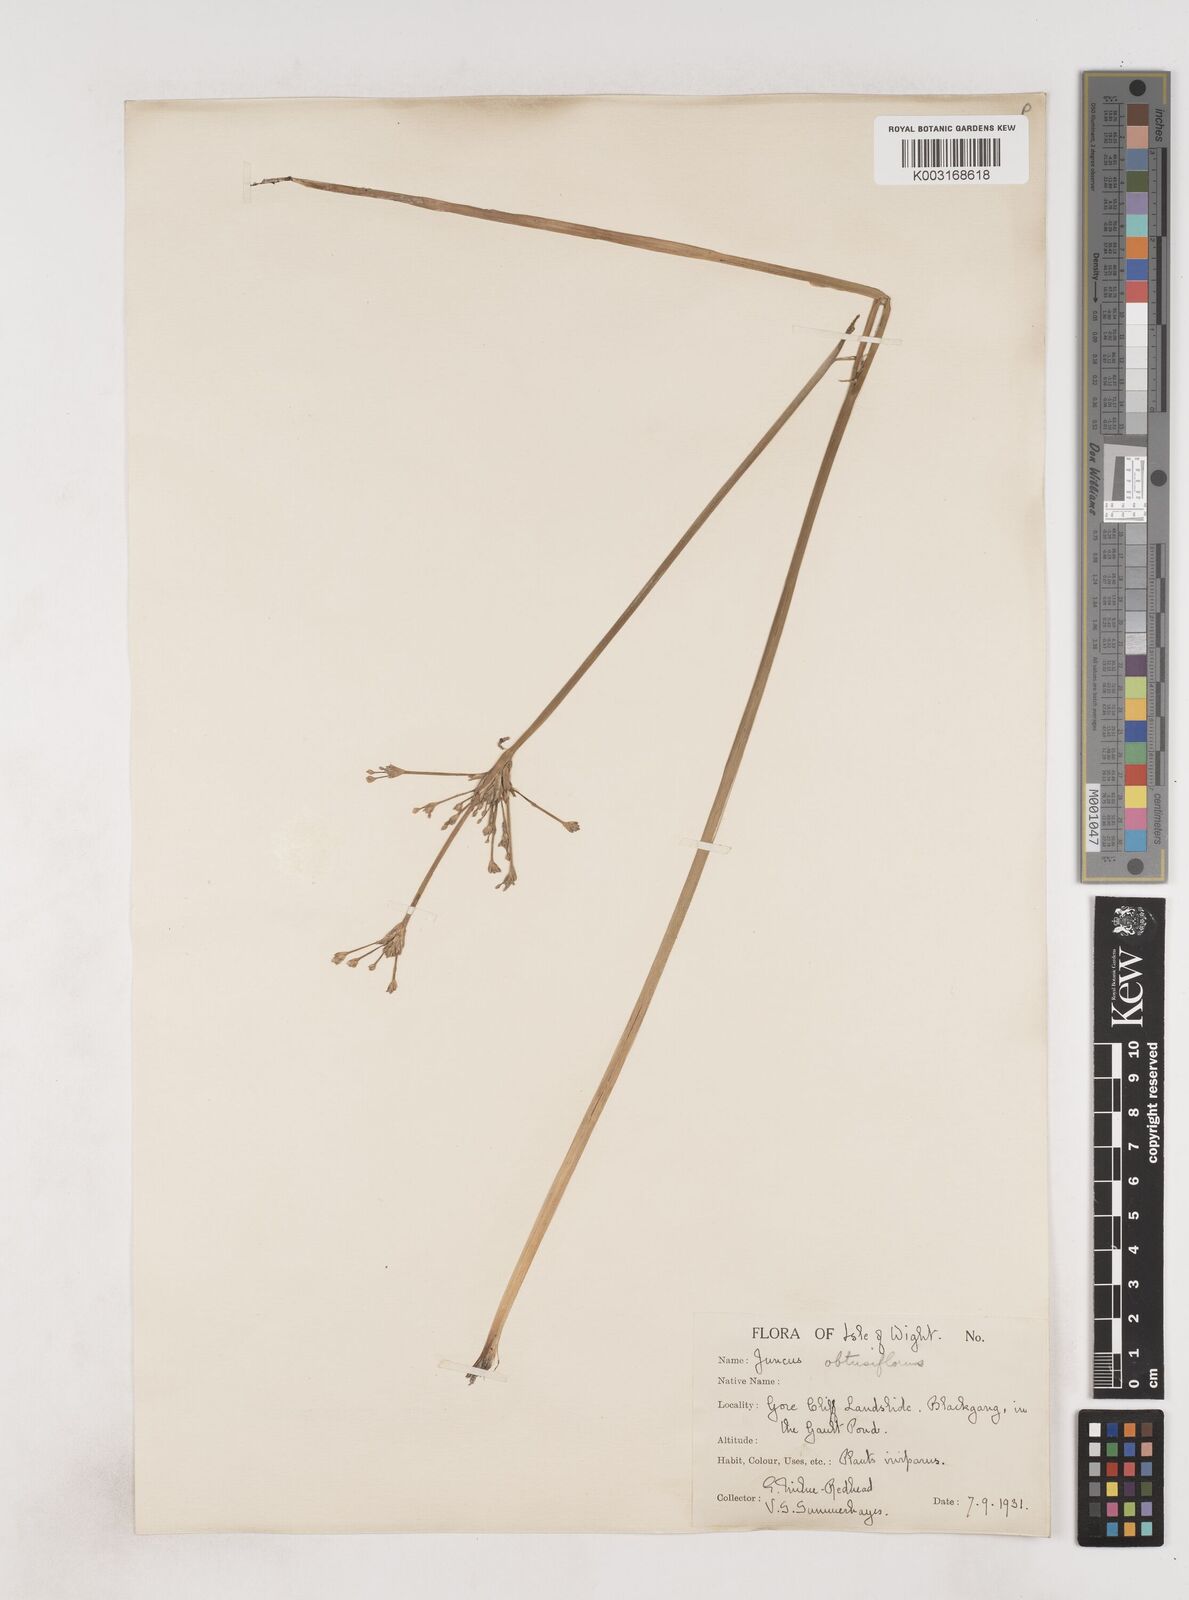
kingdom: Plantae
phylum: Tracheophyta
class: Liliopsida
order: Poales
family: Juncaceae
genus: Juncus
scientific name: Juncus subnodulosus
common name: Blunt-flowered rush
